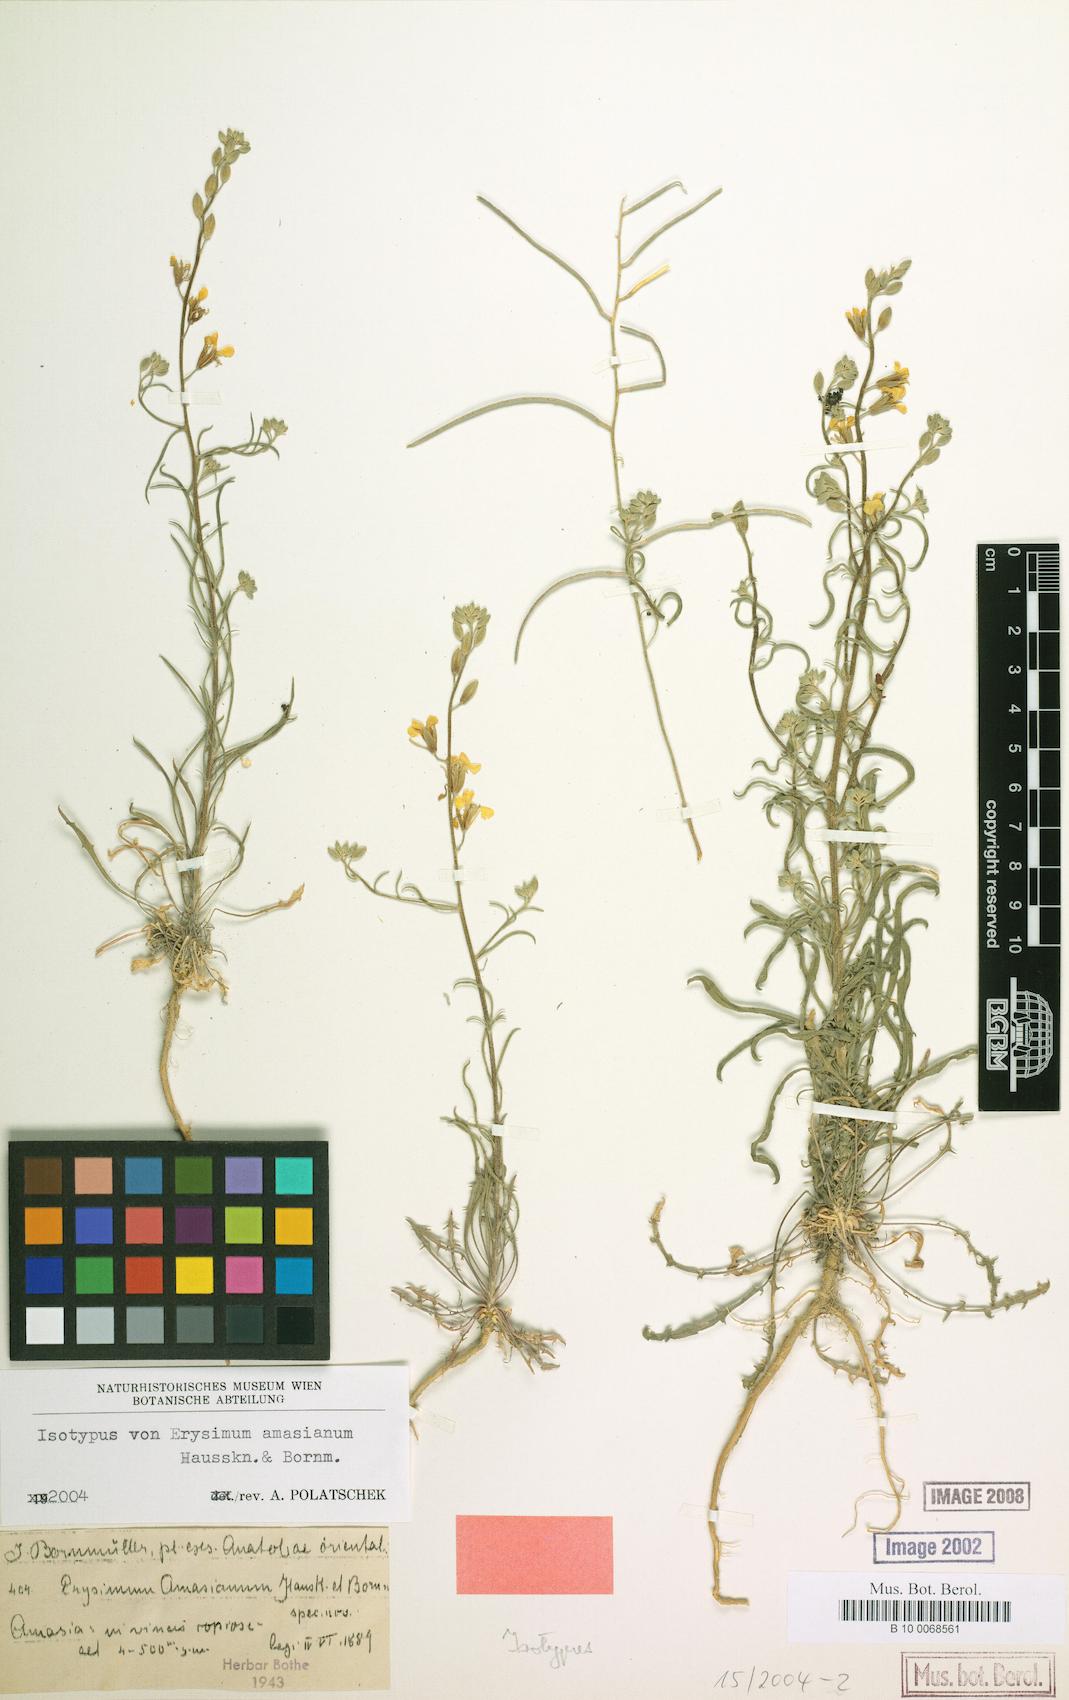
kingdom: Plantae
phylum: Tracheophyta
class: Magnoliopsida
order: Brassicales
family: Brassicaceae
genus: Erysimum
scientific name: Erysimum amasianum
